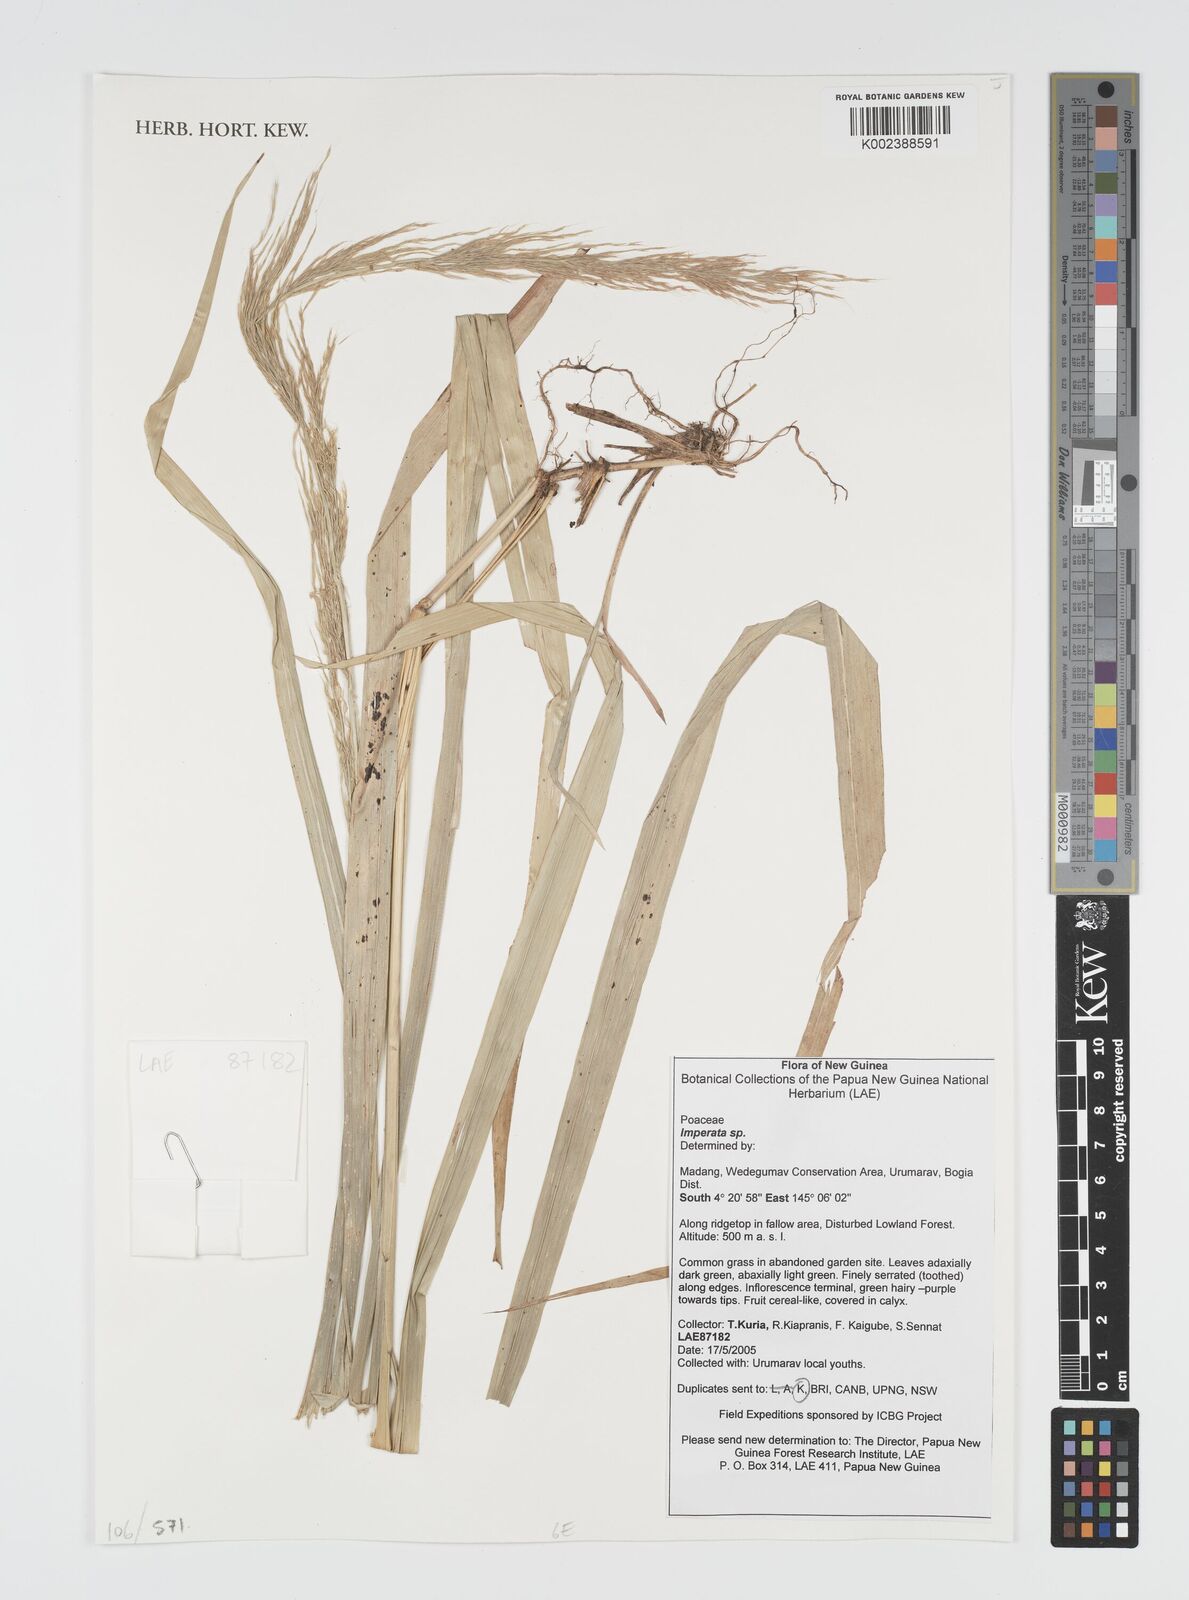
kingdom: Plantae
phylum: Tracheophyta
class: Liliopsida
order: Poales
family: Poaceae
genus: Imperata
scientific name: Imperata
